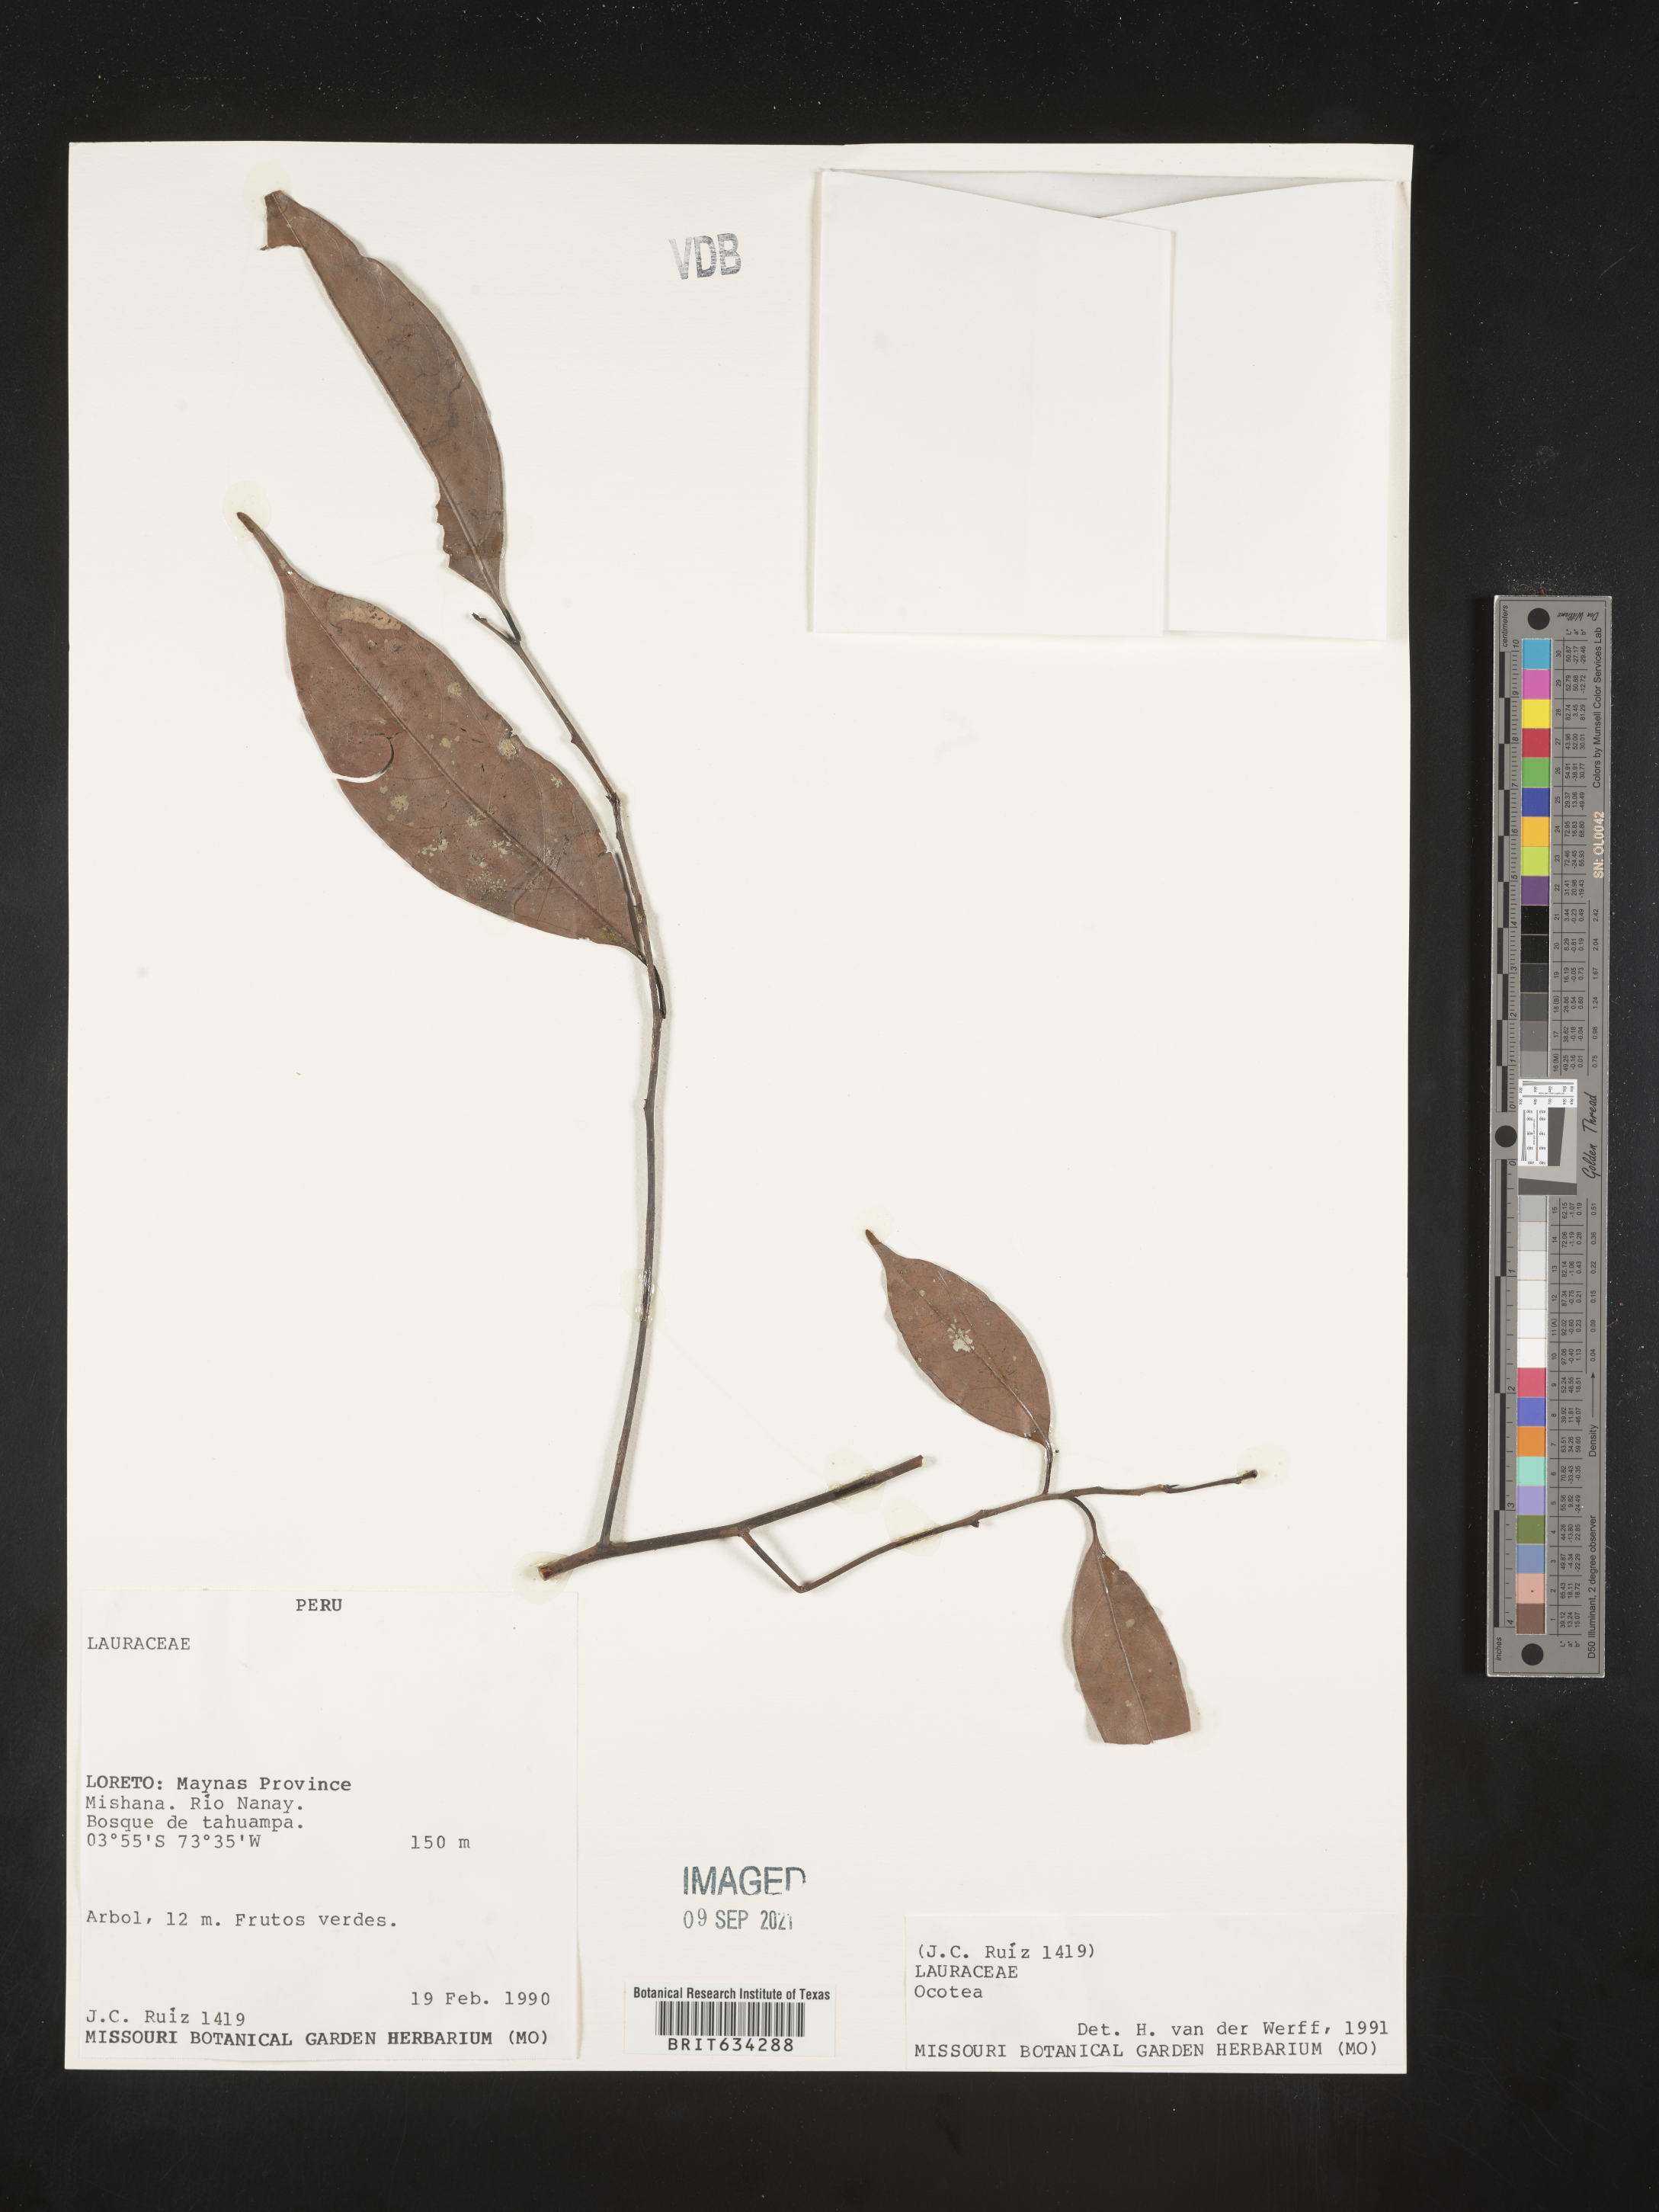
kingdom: Plantae
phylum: Tracheophyta
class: Magnoliopsida
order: Laurales
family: Lauraceae
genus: Ocotea
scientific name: Ocotea
